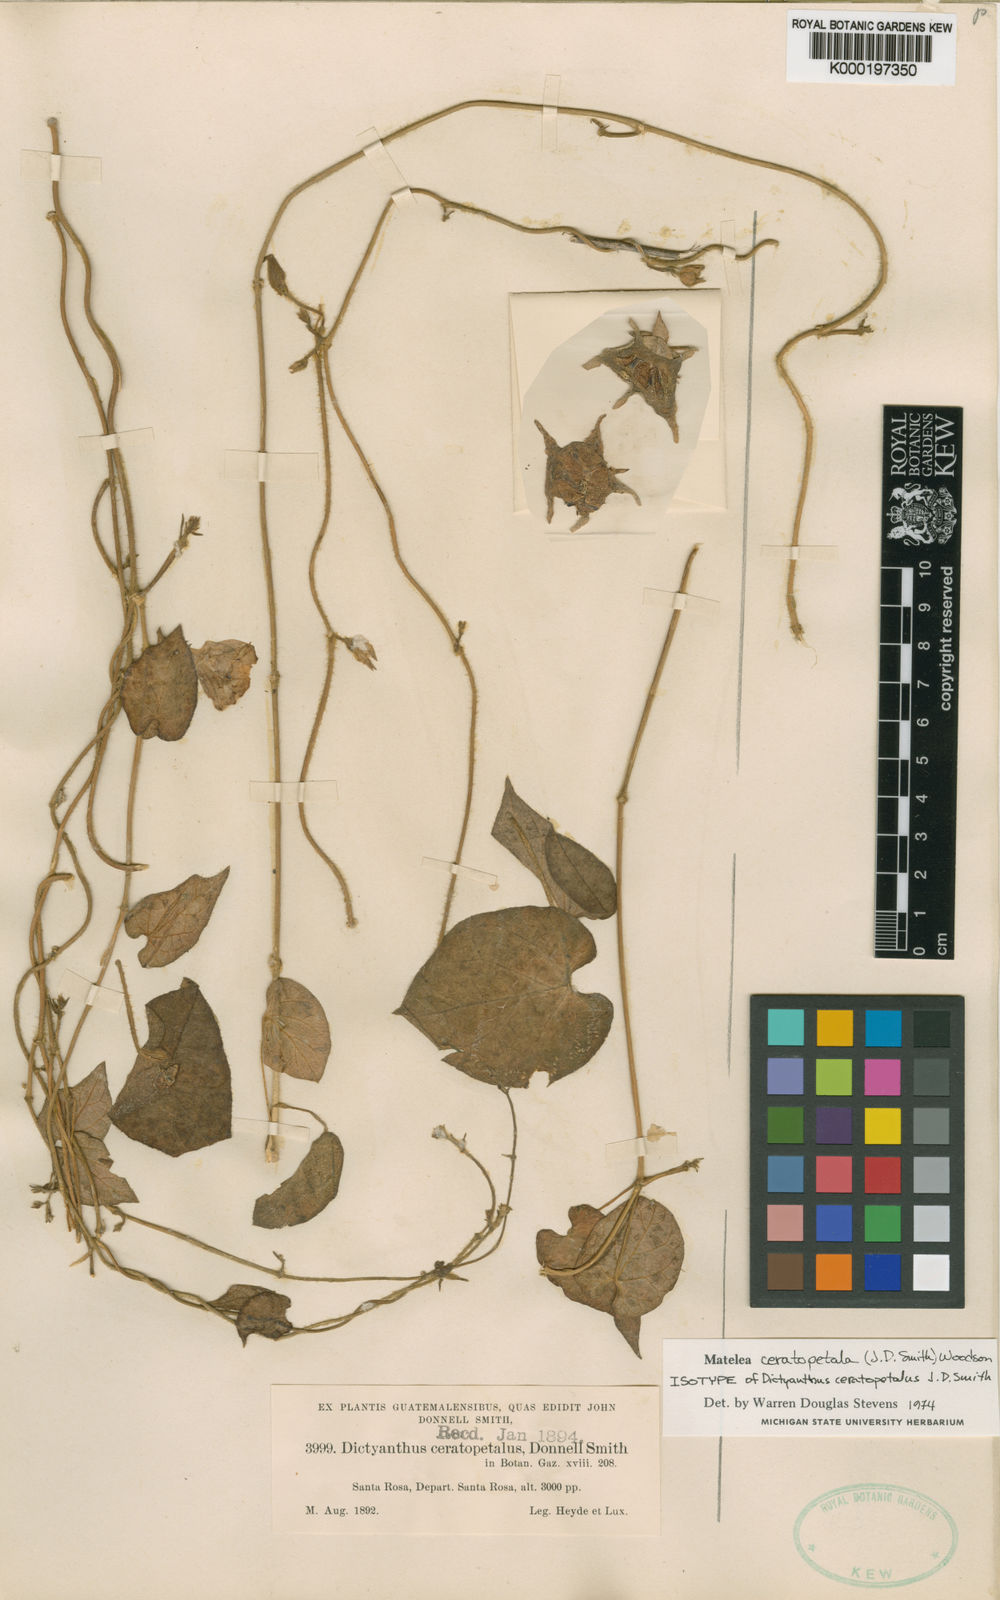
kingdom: Plantae
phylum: Tracheophyta
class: Magnoliopsida
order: Gentianales
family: Apocynaceae
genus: Dictyanthus
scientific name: Dictyanthus ceratopetalus
